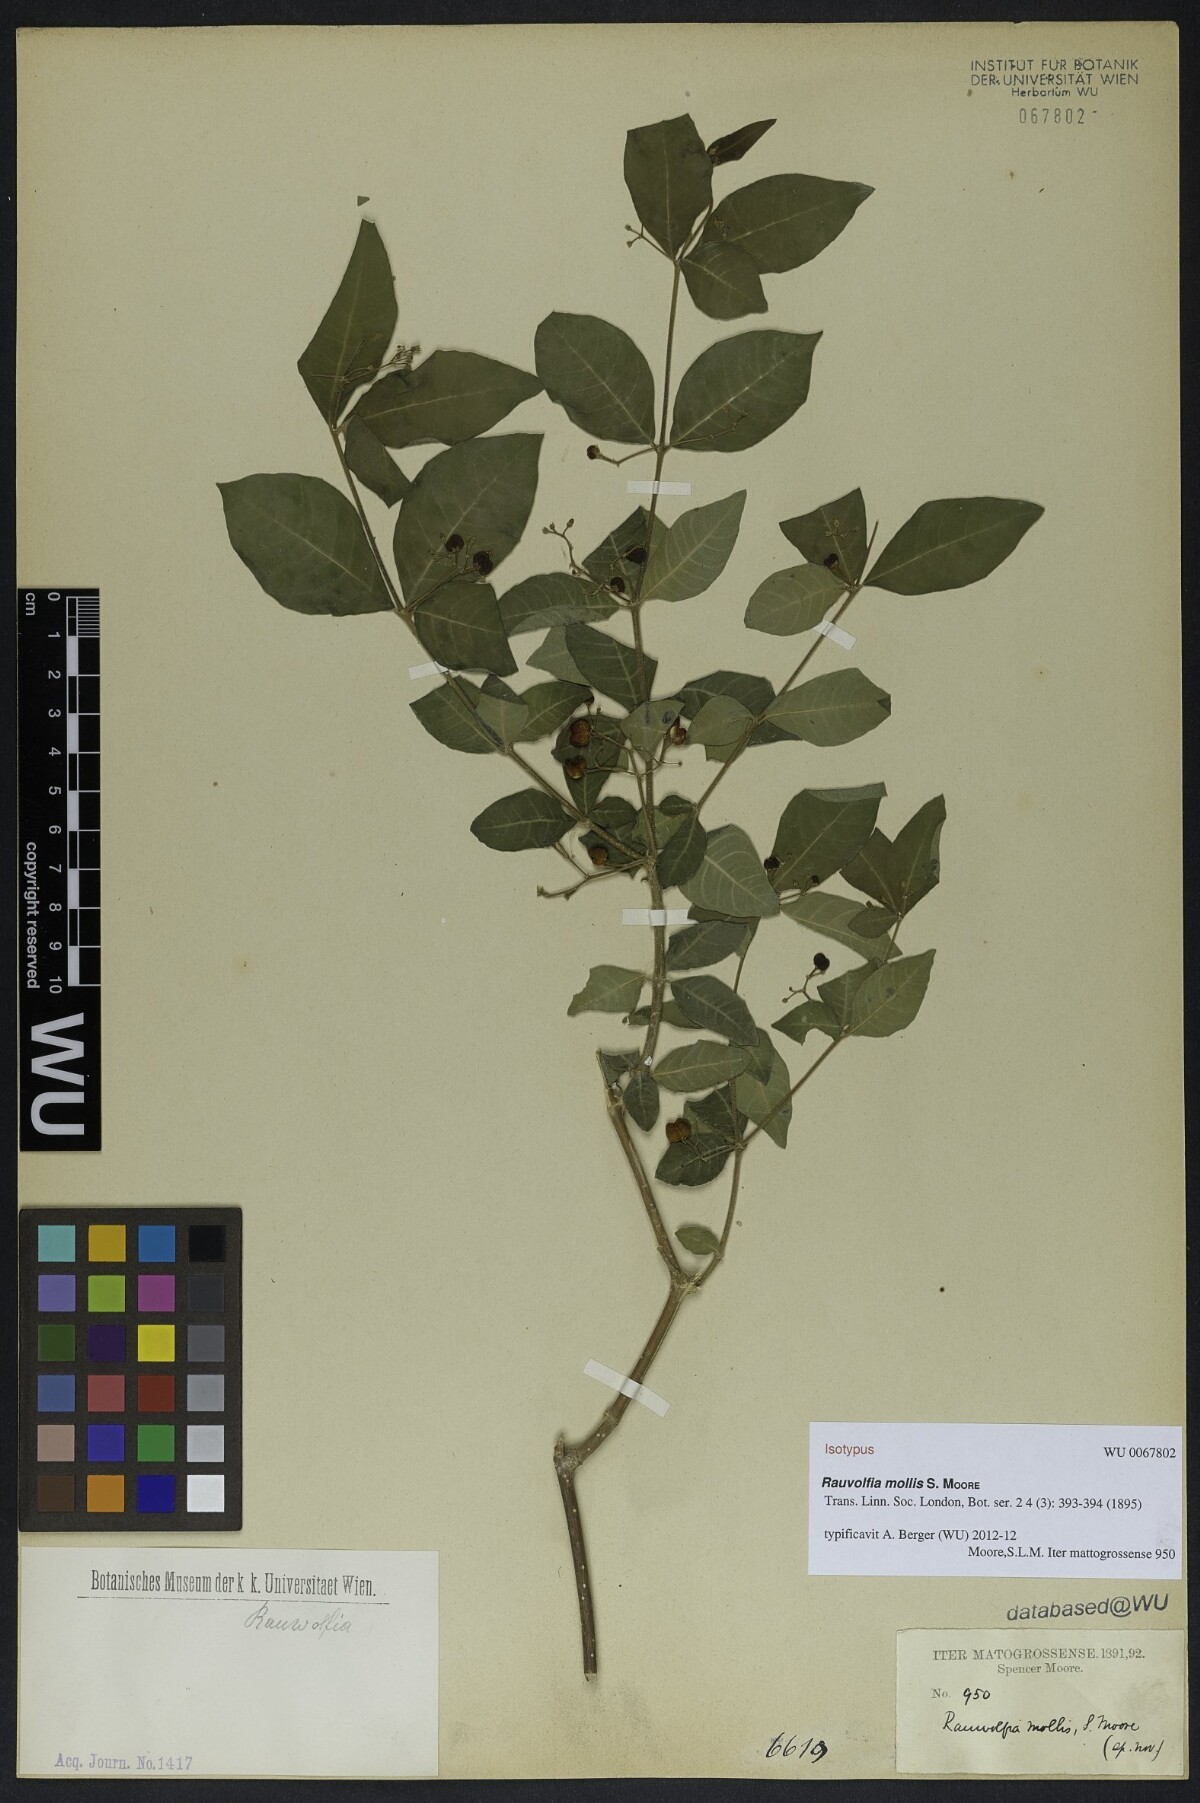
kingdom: Plantae
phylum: Tracheophyta
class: Magnoliopsida
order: Gentianales
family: Apocynaceae
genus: Rauvolfia
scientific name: Rauvolfia ligustrina
